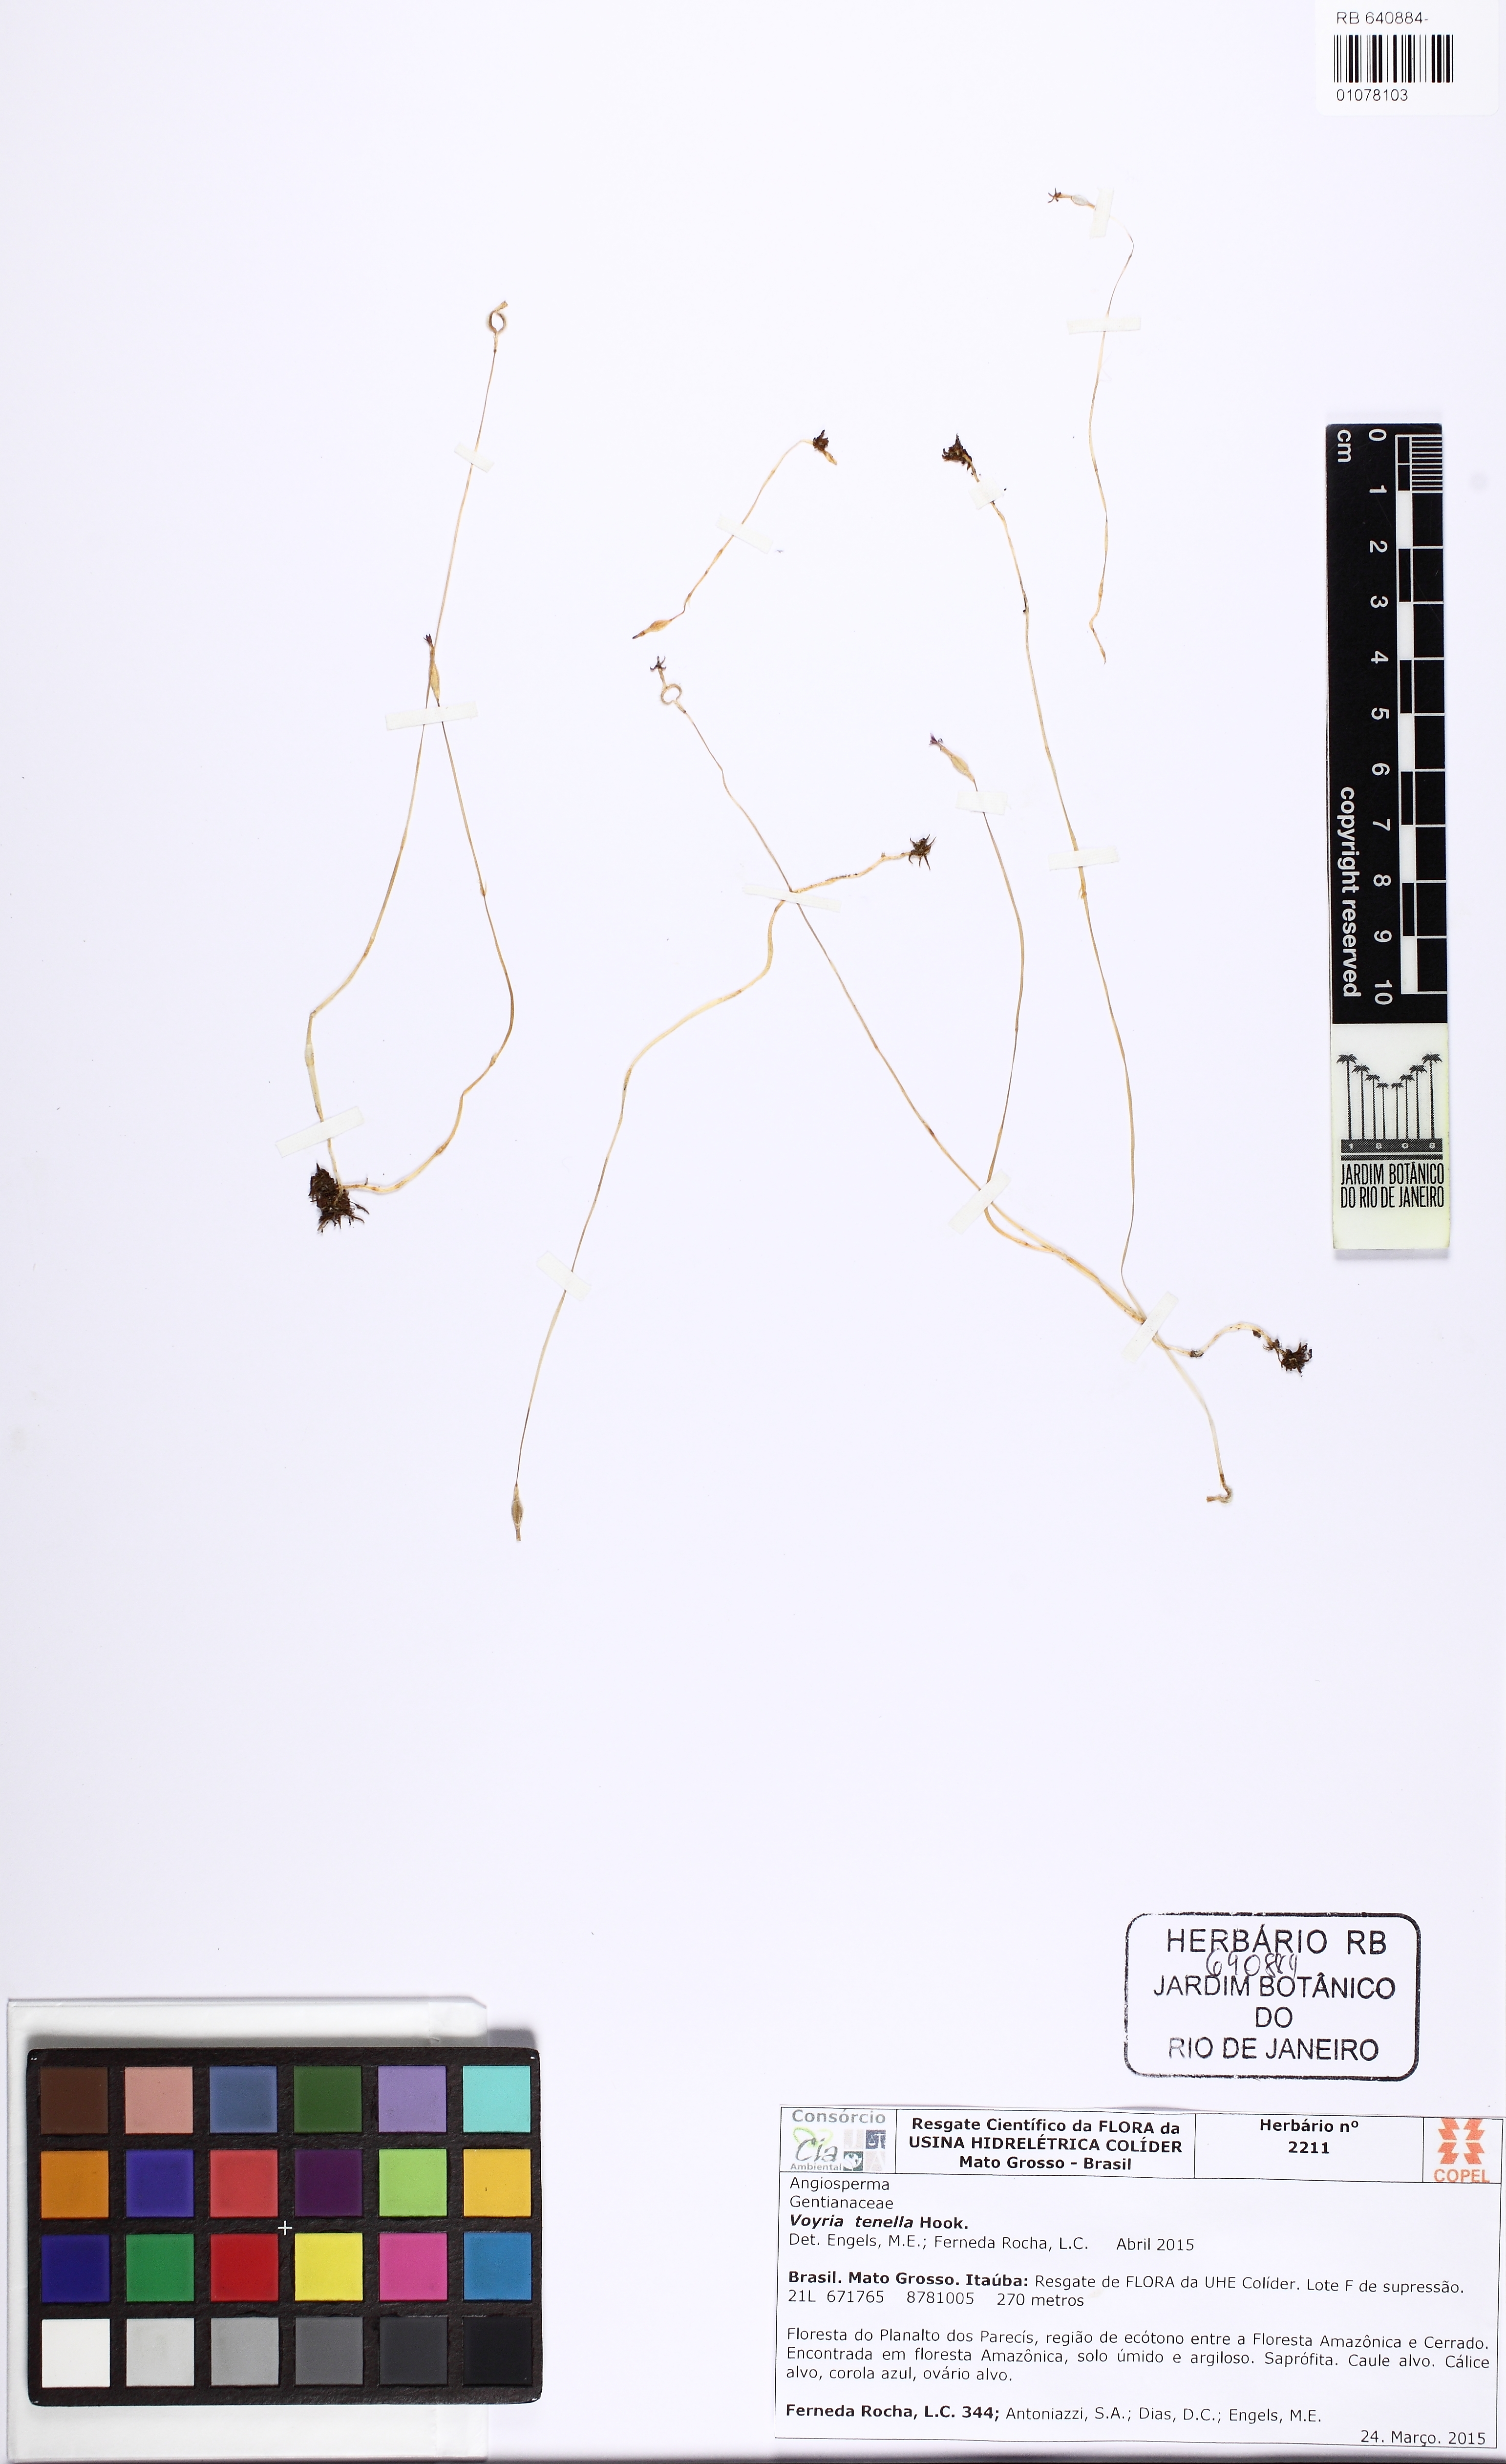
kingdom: Plantae
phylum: Tracheophyta
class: Magnoliopsida
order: Gentianales
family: Gentianaceae
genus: Voyria
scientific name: Voyria tenella
